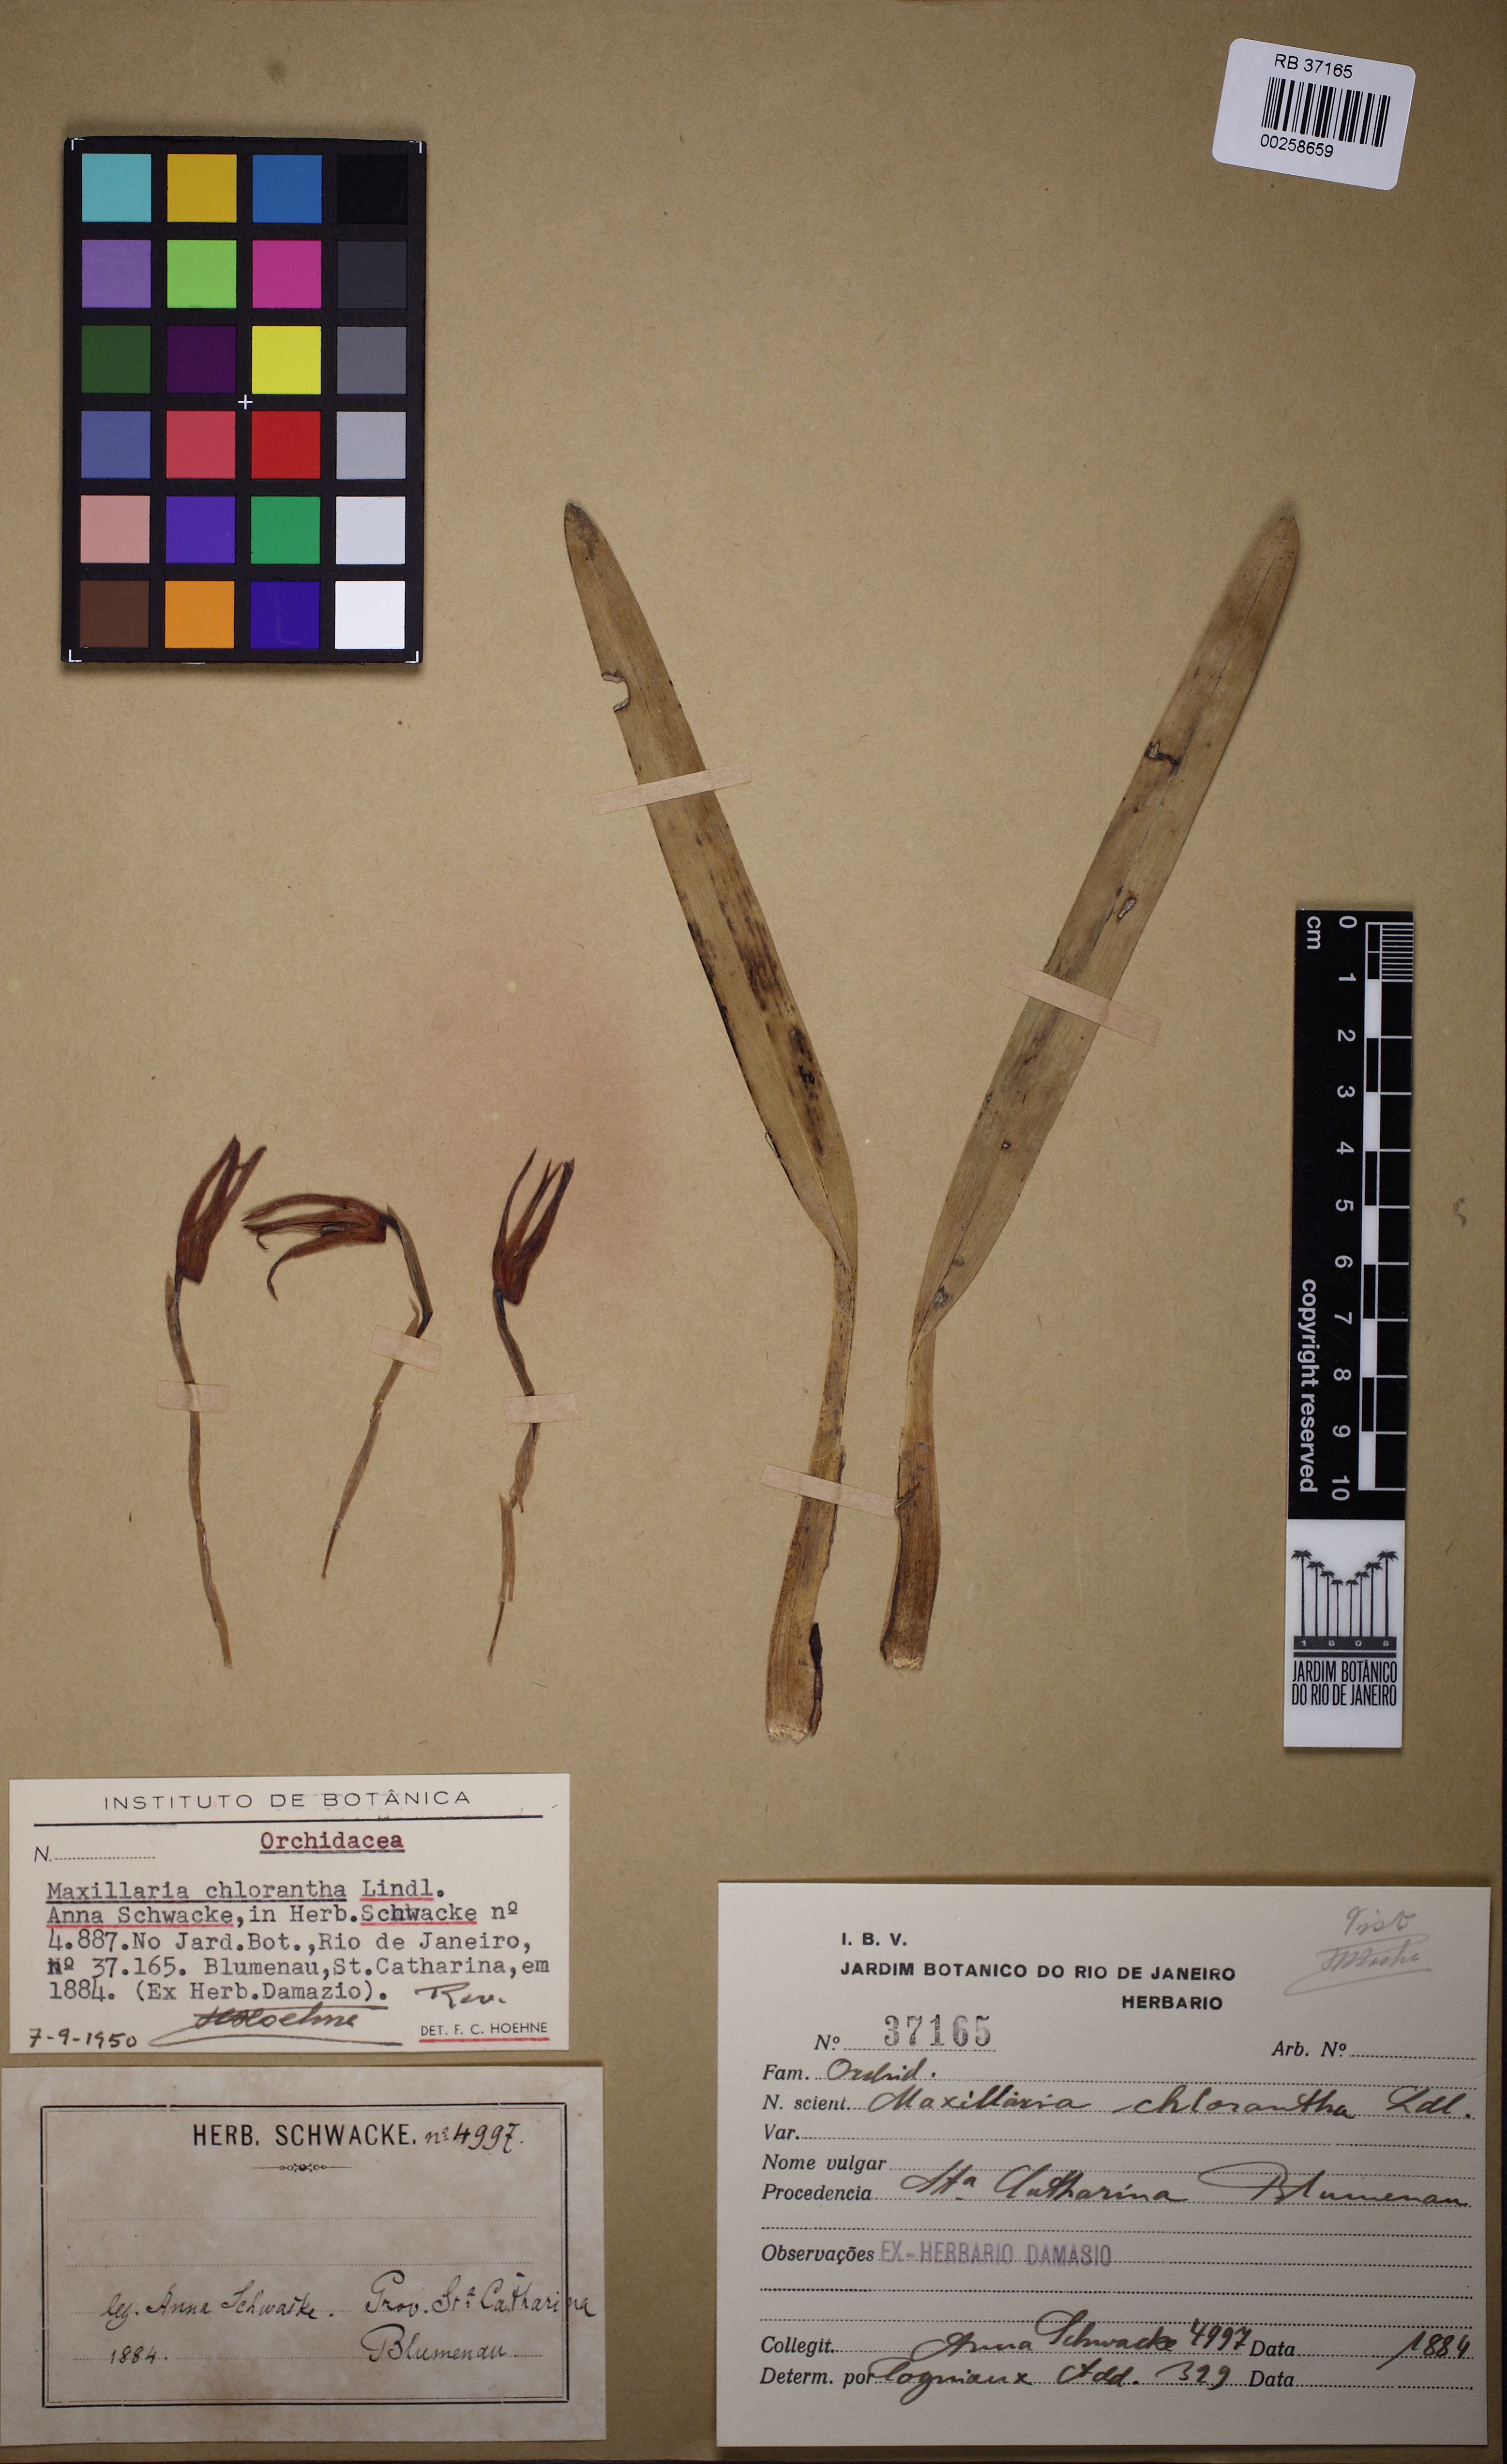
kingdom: Plantae
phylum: Tracheophyta
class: Liliopsida
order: Asparagales
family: Orchidaceae
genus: Maxillaria
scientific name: Maxillaria chlorantha
